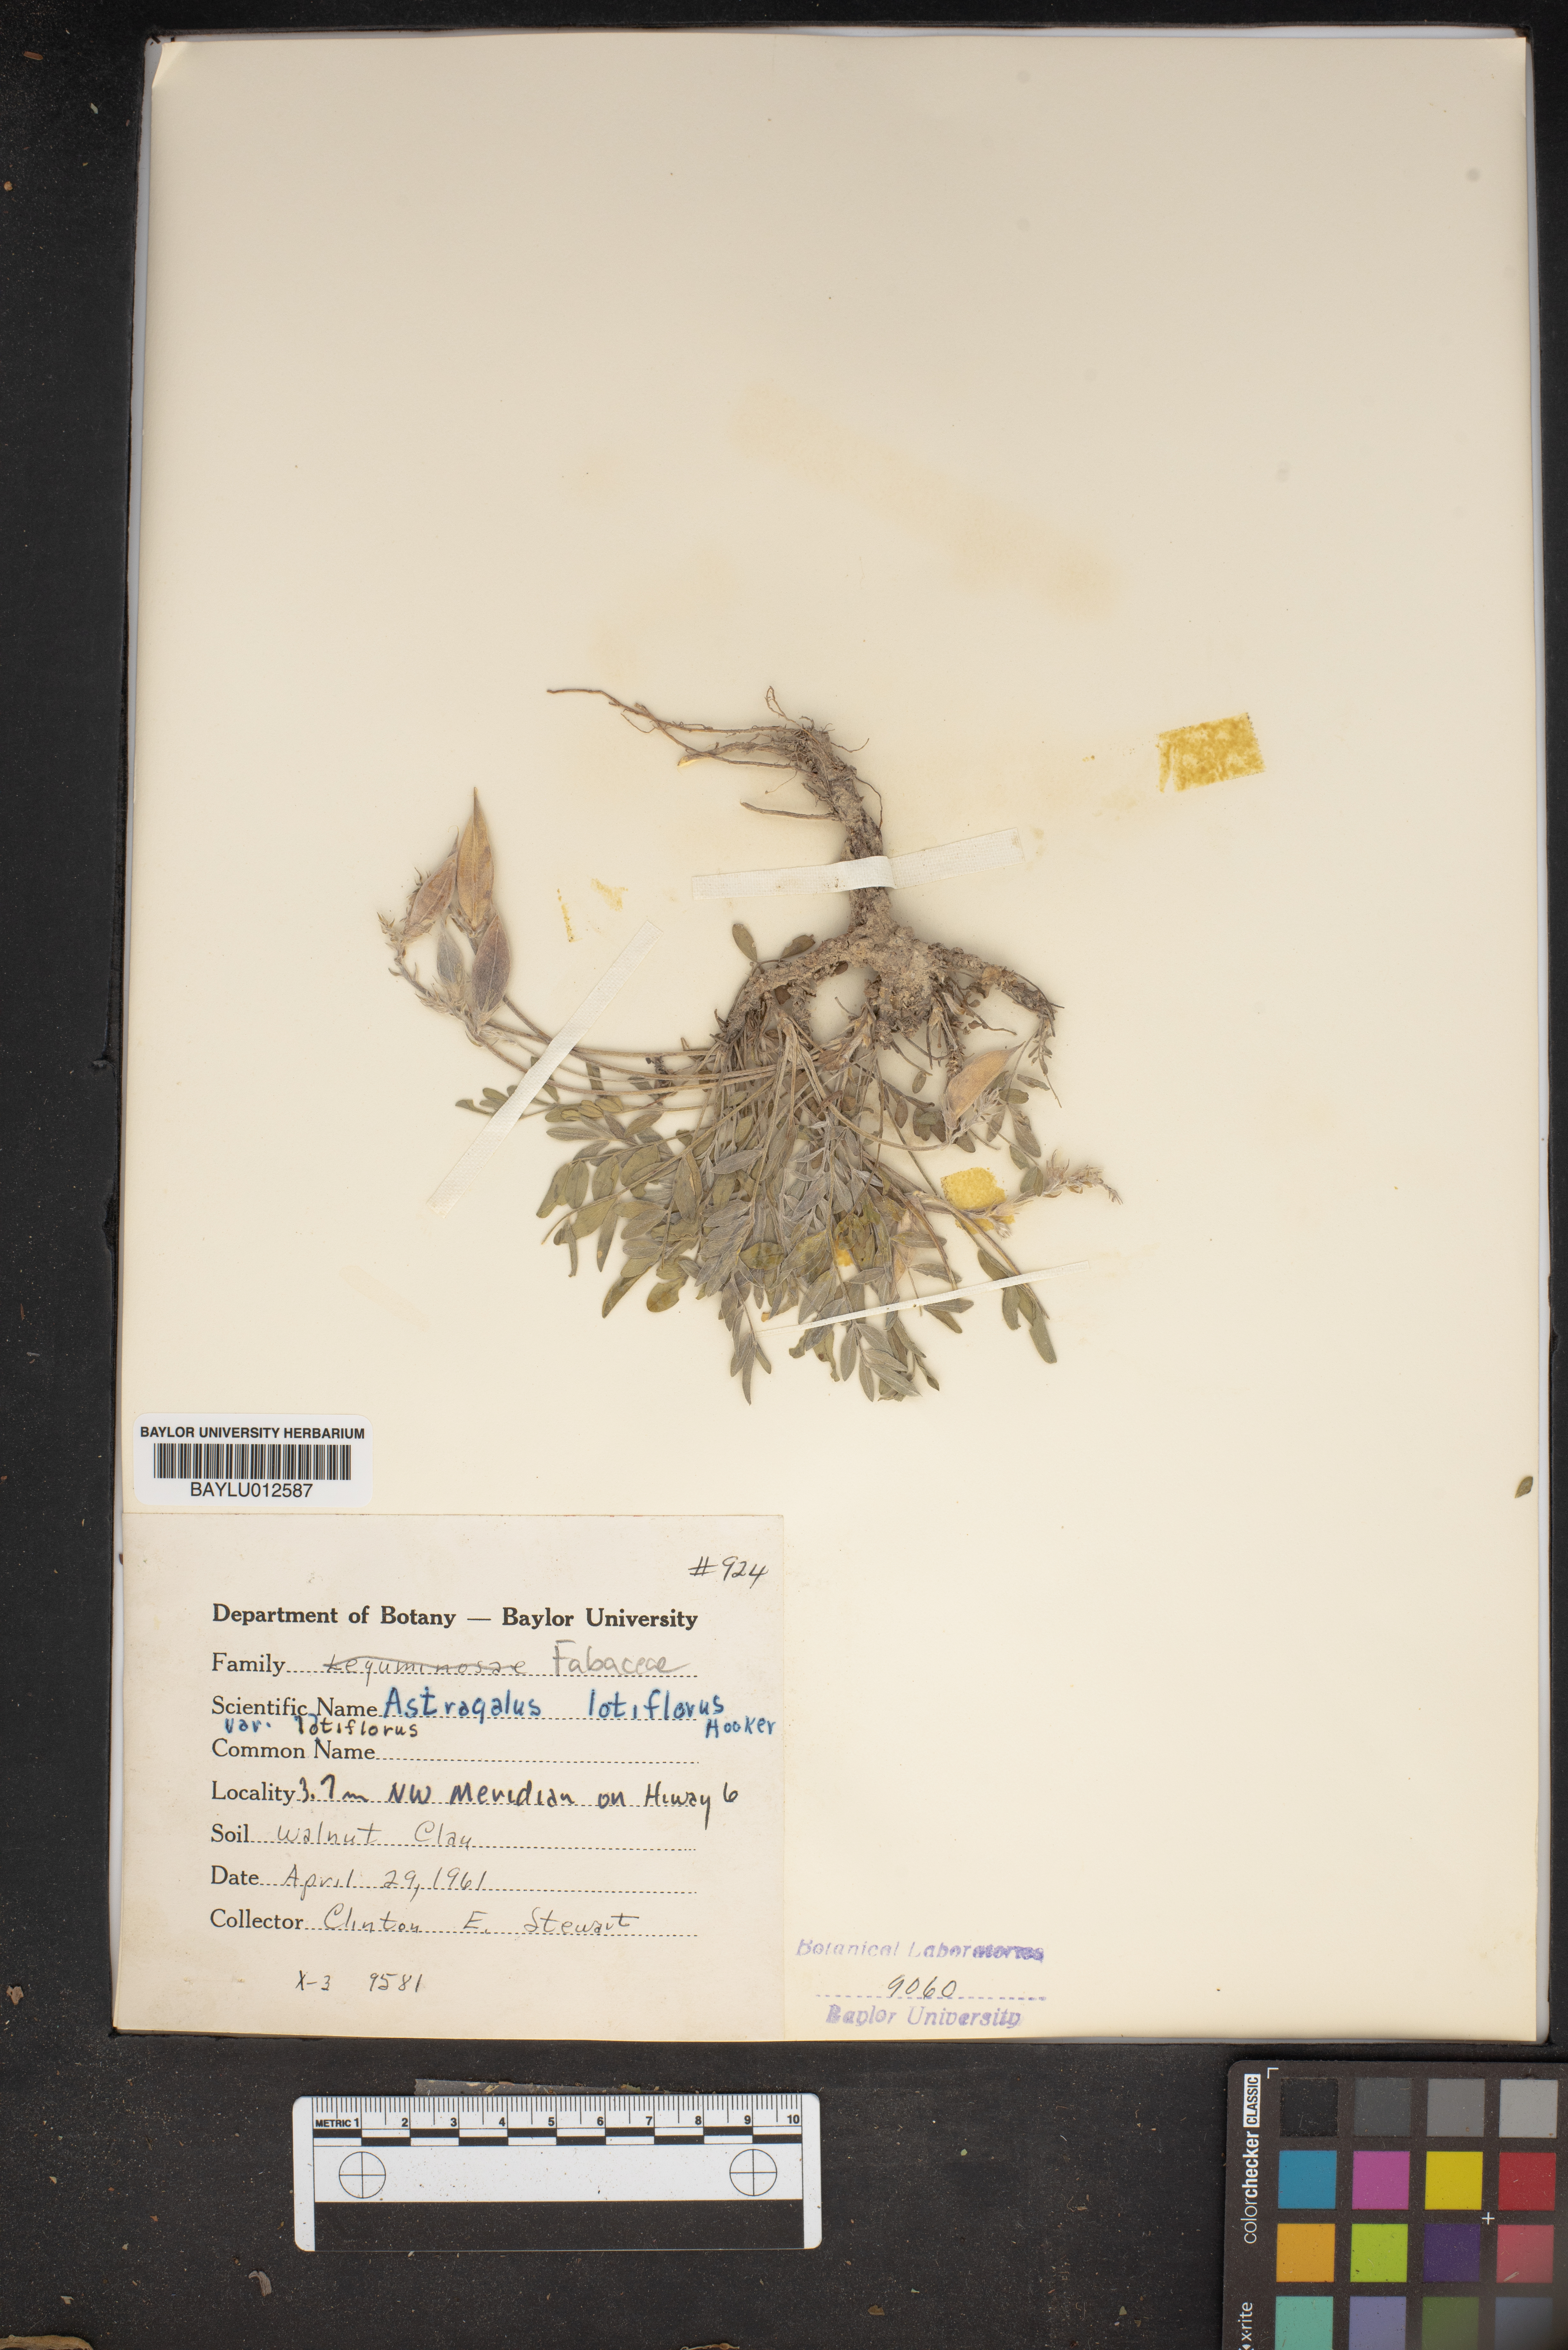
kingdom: Plantae
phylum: Tracheophyta
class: Magnoliopsida
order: Fabales
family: Fabaceae
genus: Astragalus
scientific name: Astragalus lotiflorus
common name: Lotus milk-vetch
